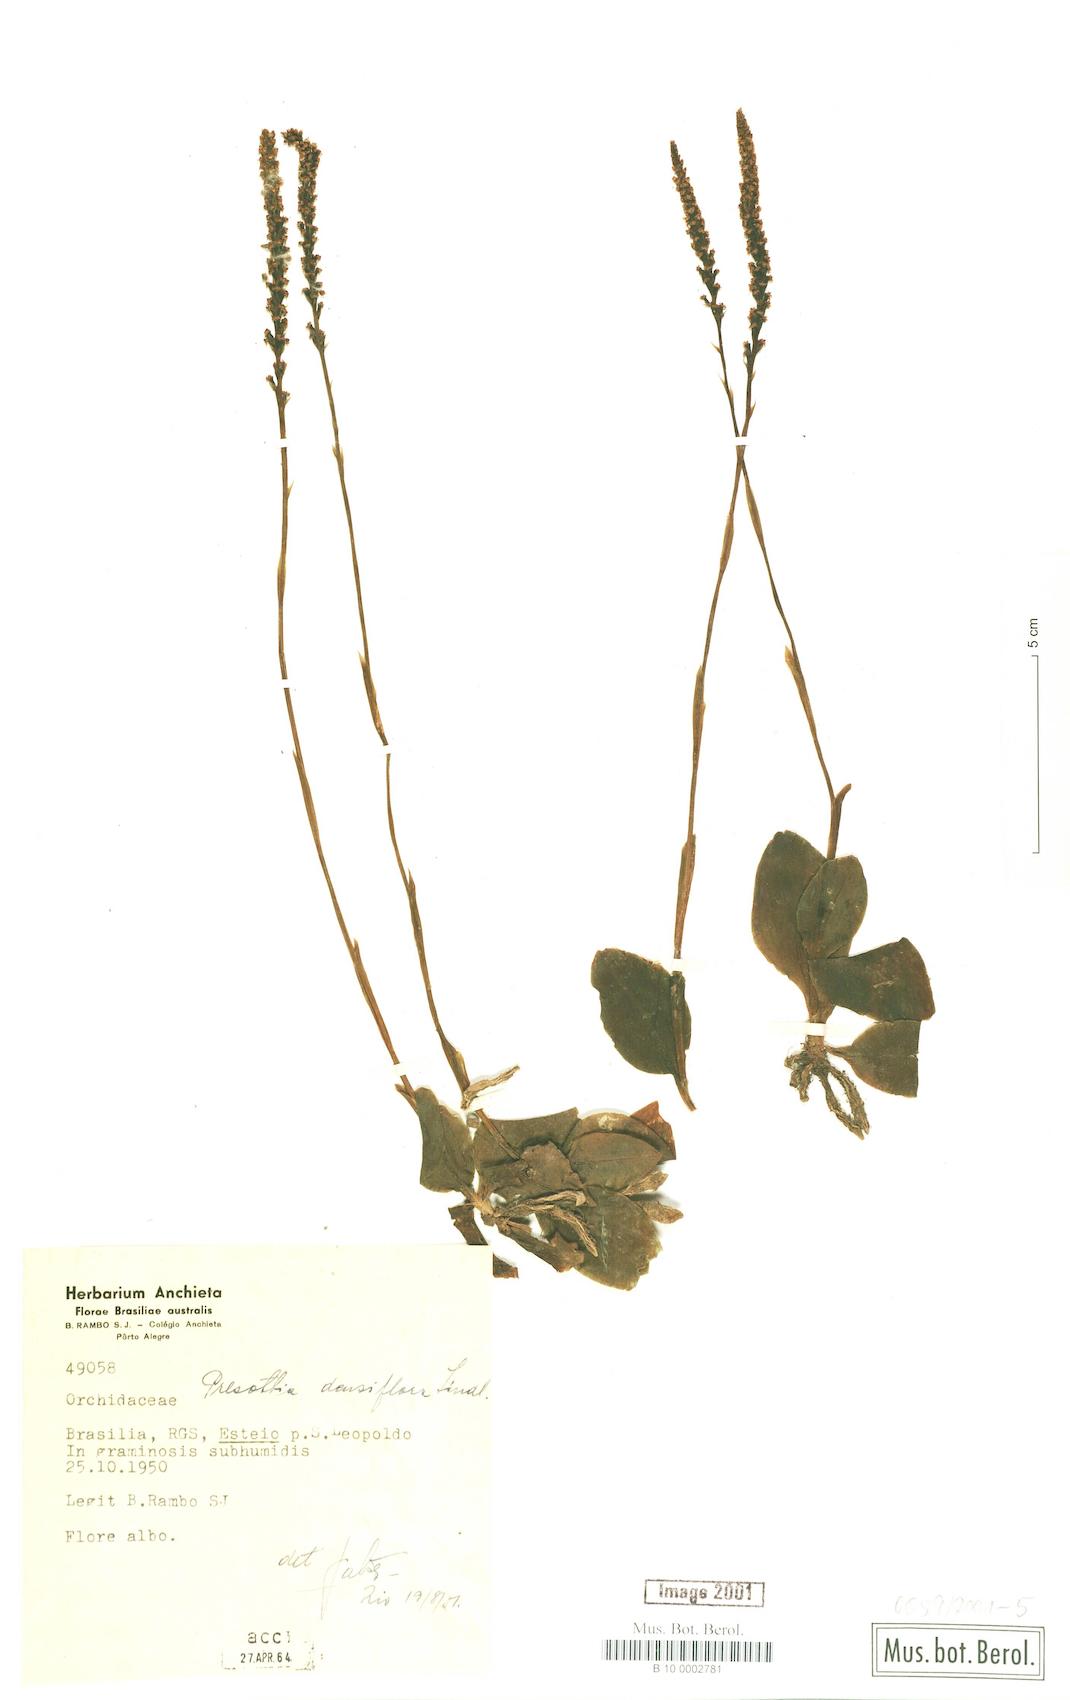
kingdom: Plantae
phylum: Tracheophyta
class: Liliopsida
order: Asparagales
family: Orchidaceae
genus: Prescottia
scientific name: Prescottia densiflora
